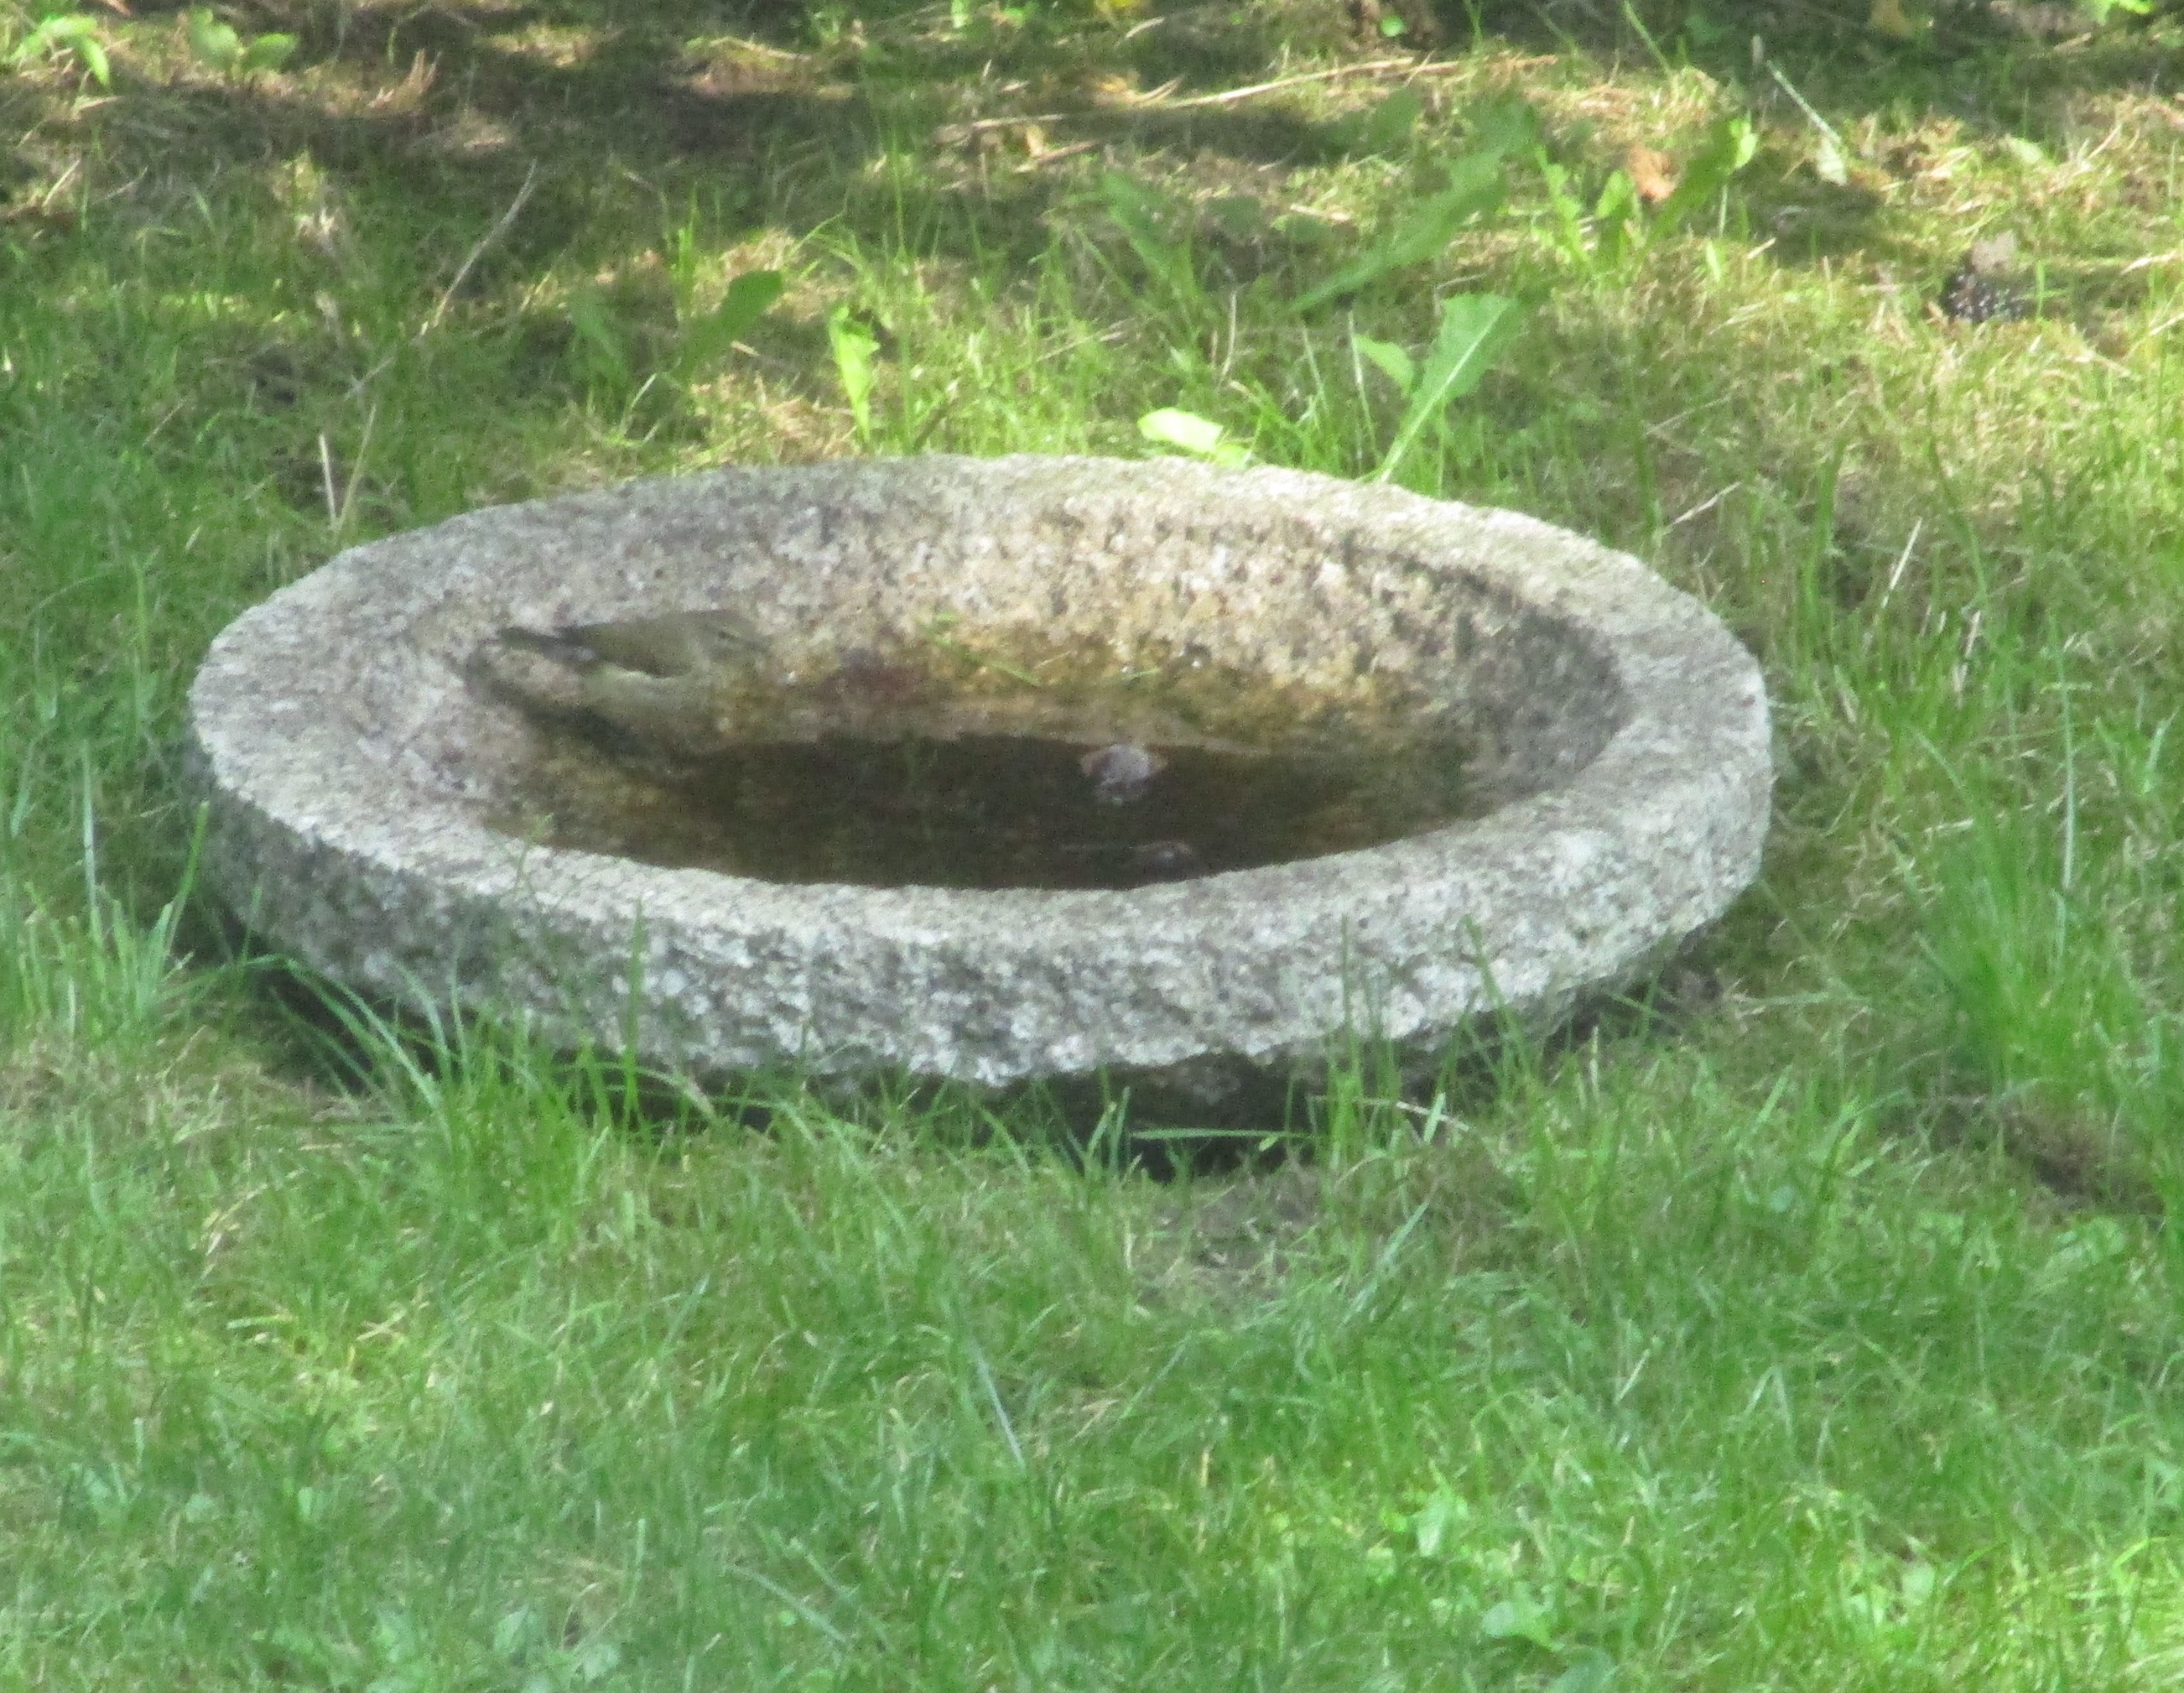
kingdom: Animalia
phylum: Chordata
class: Aves
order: Passeriformes
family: Phylloscopidae
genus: Phylloscopus
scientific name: Phylloscopus collybita
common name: Gransanger
